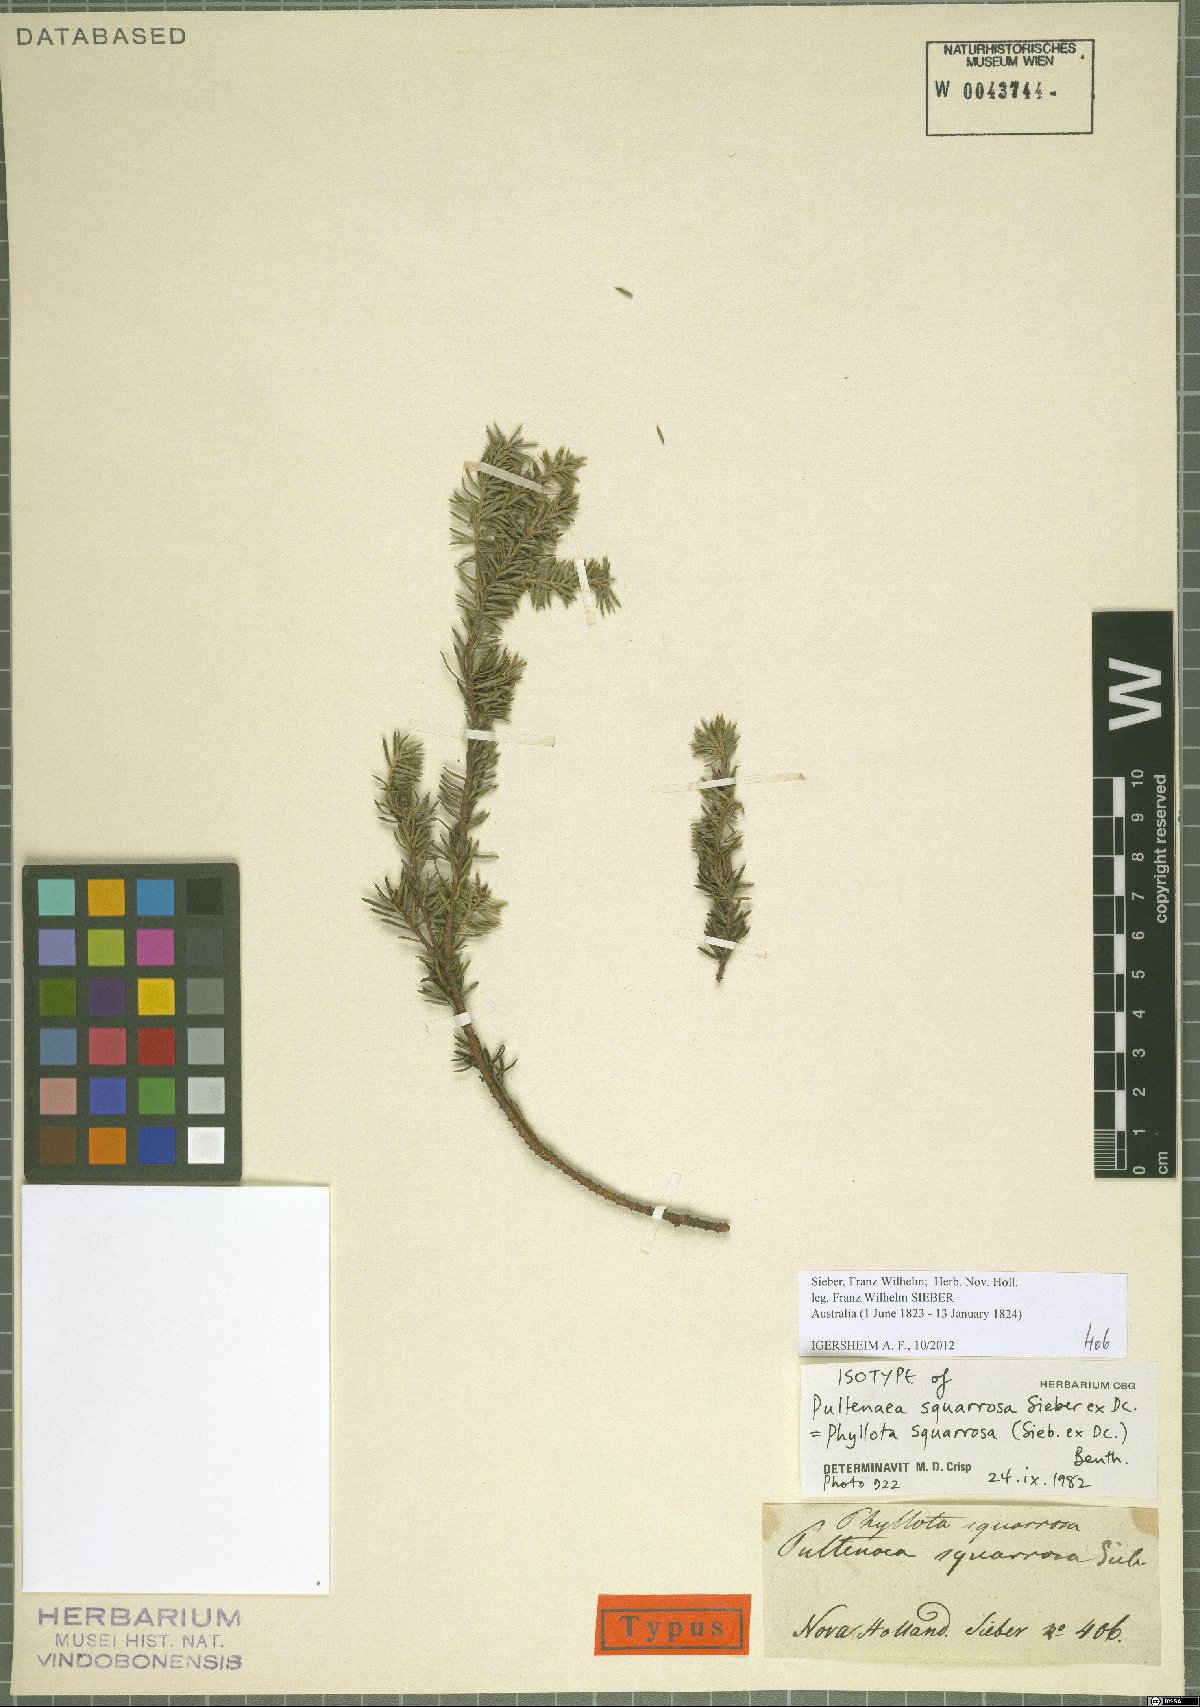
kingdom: Plantae
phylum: Tracheophyta
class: Magnoliopsida
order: Fabales
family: Fabaceae
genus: Phyllota
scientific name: Phyllota squarrosa
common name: Dense phyllota
